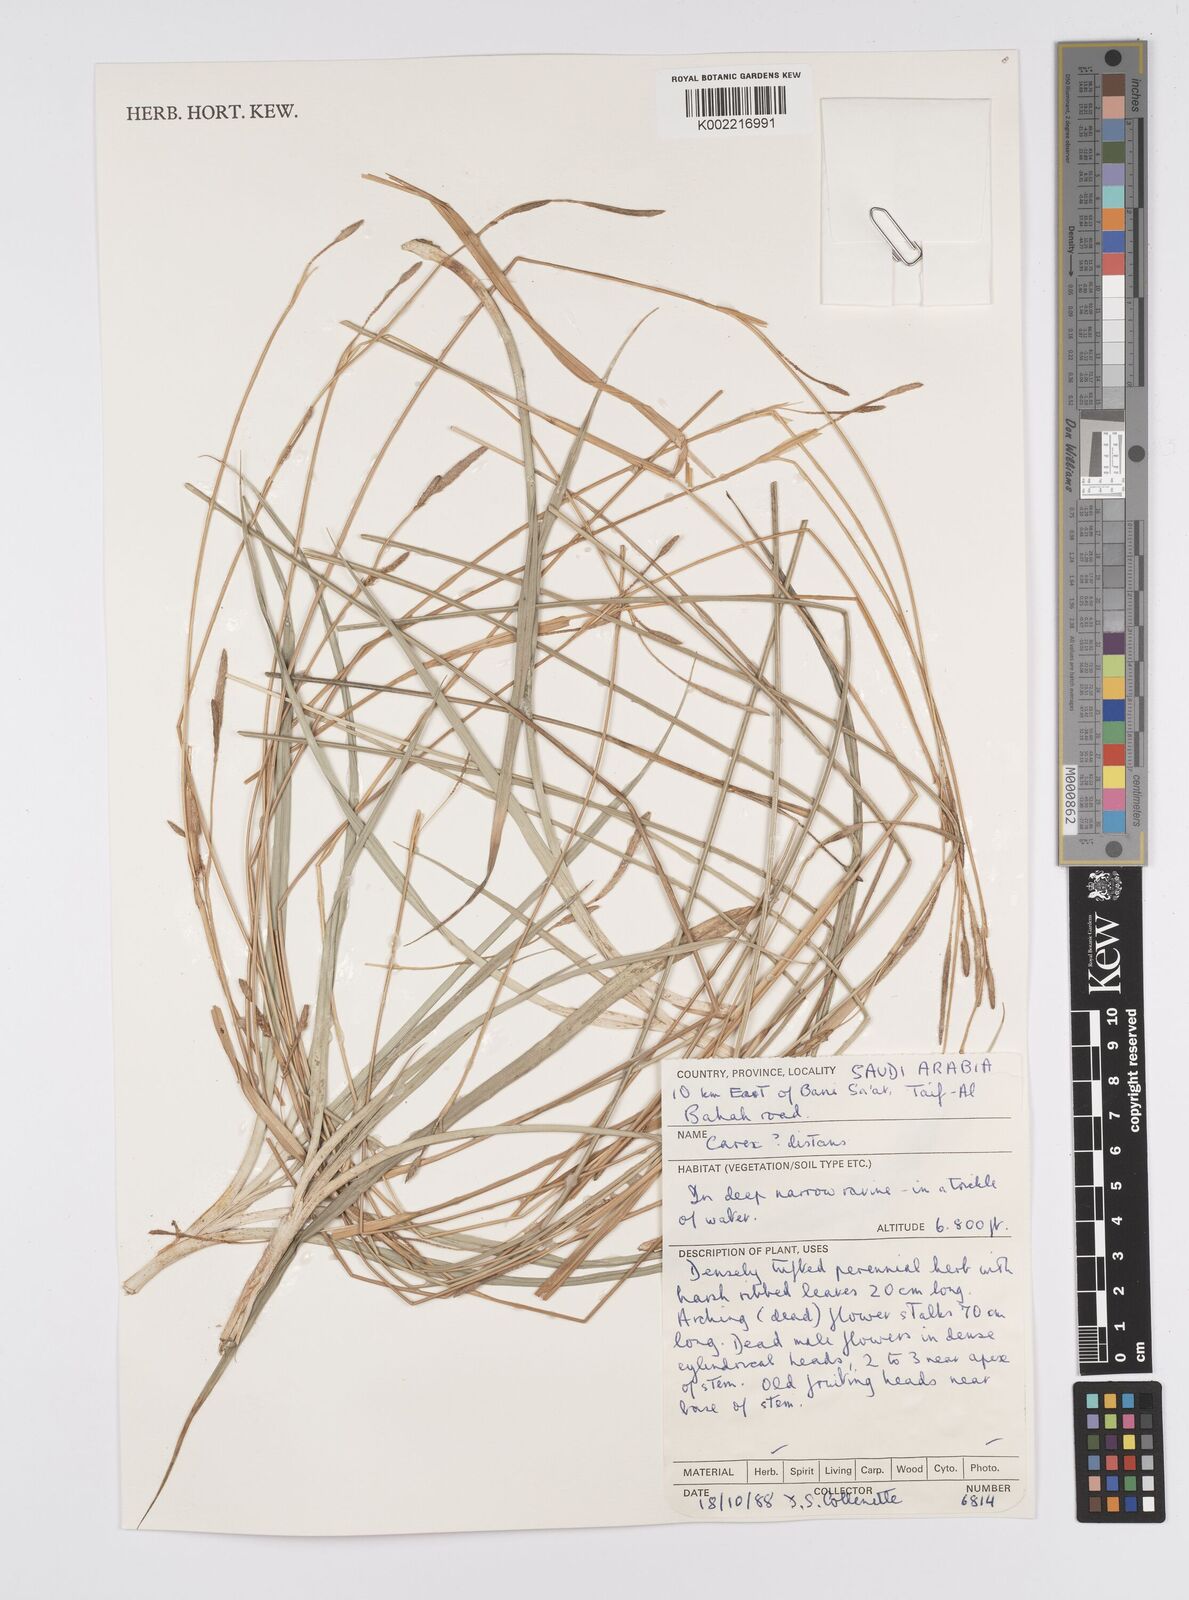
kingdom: Plantae
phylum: Tracheophyta
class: Liliopsida
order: Poales
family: Cyperaceae
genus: Carex
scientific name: Carex distans
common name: Distant sedge
